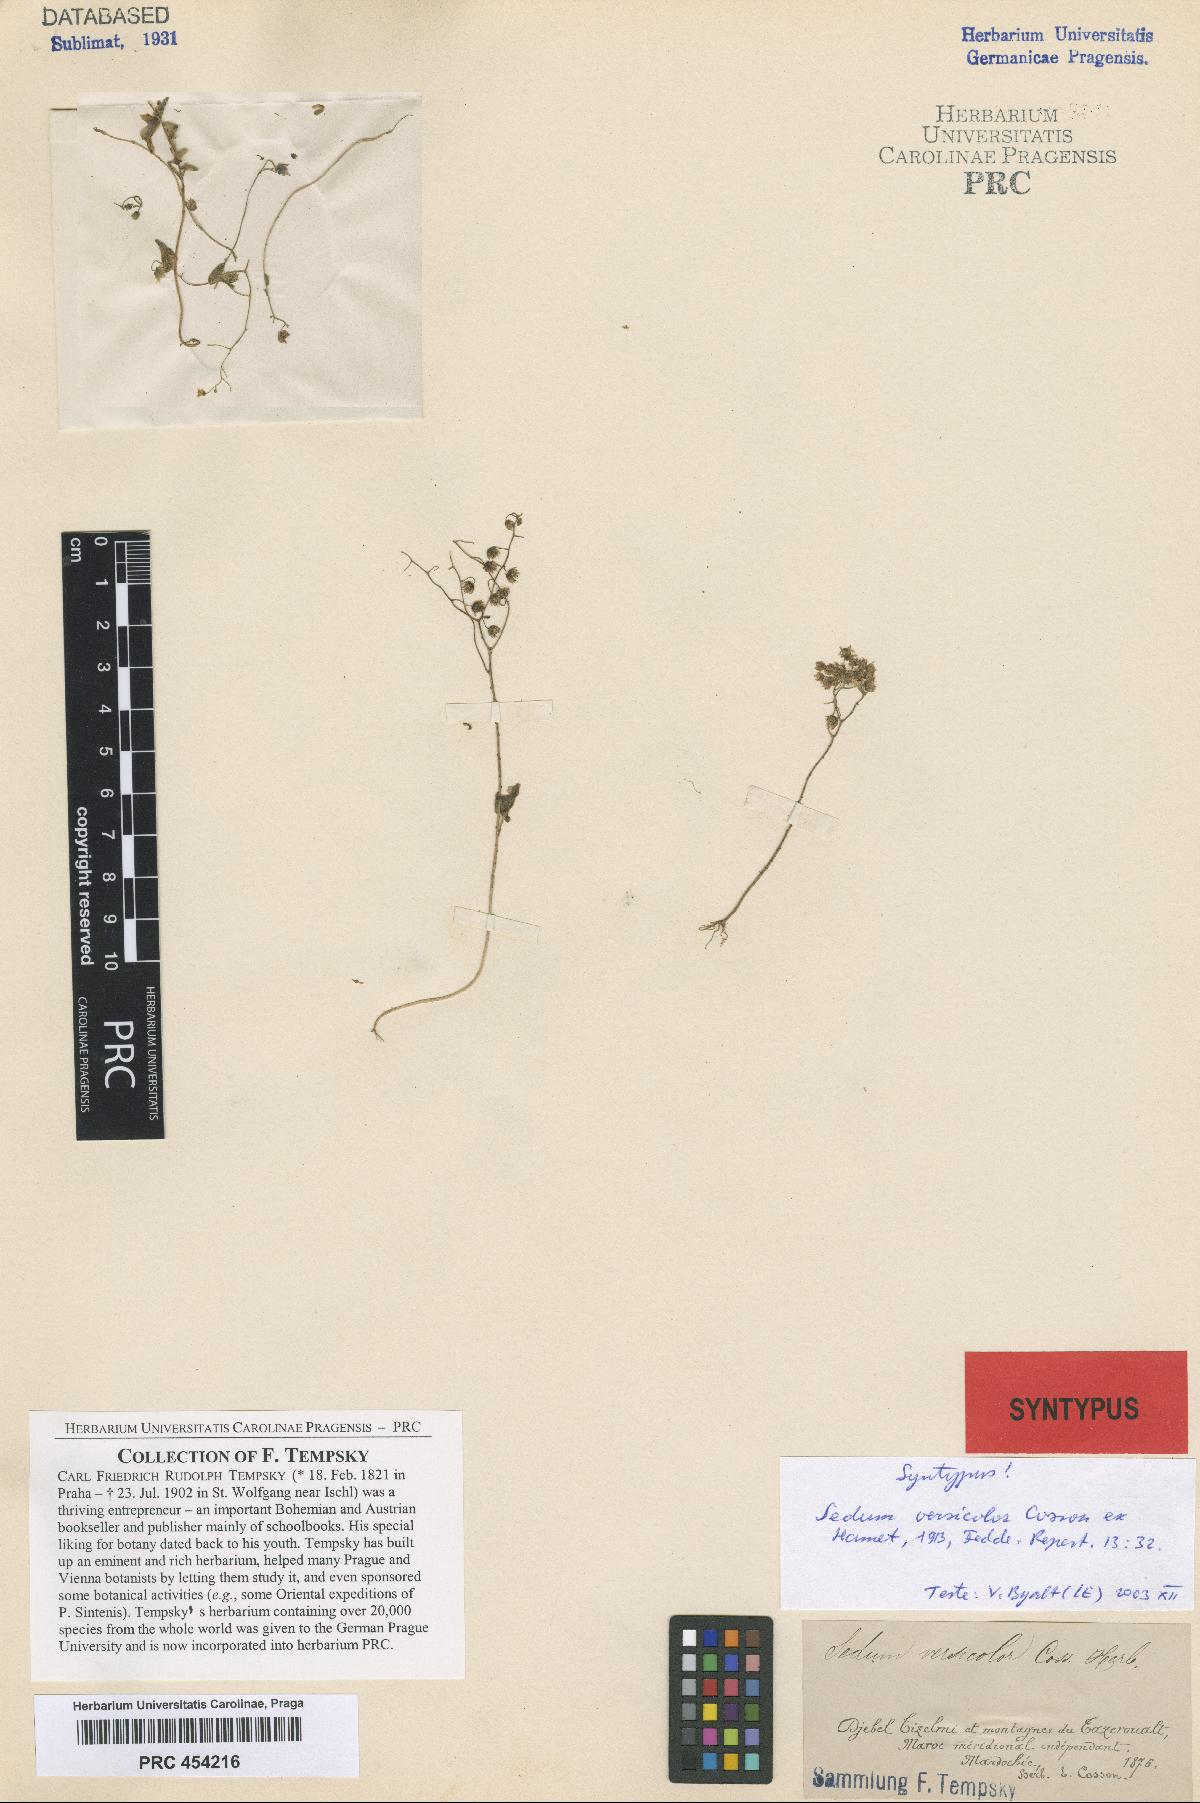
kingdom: Plantae
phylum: Tracheophyta
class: Magnoliopsida
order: Saxifragales
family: Crassulaceae
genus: Sedum
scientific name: Sedum versicolor
